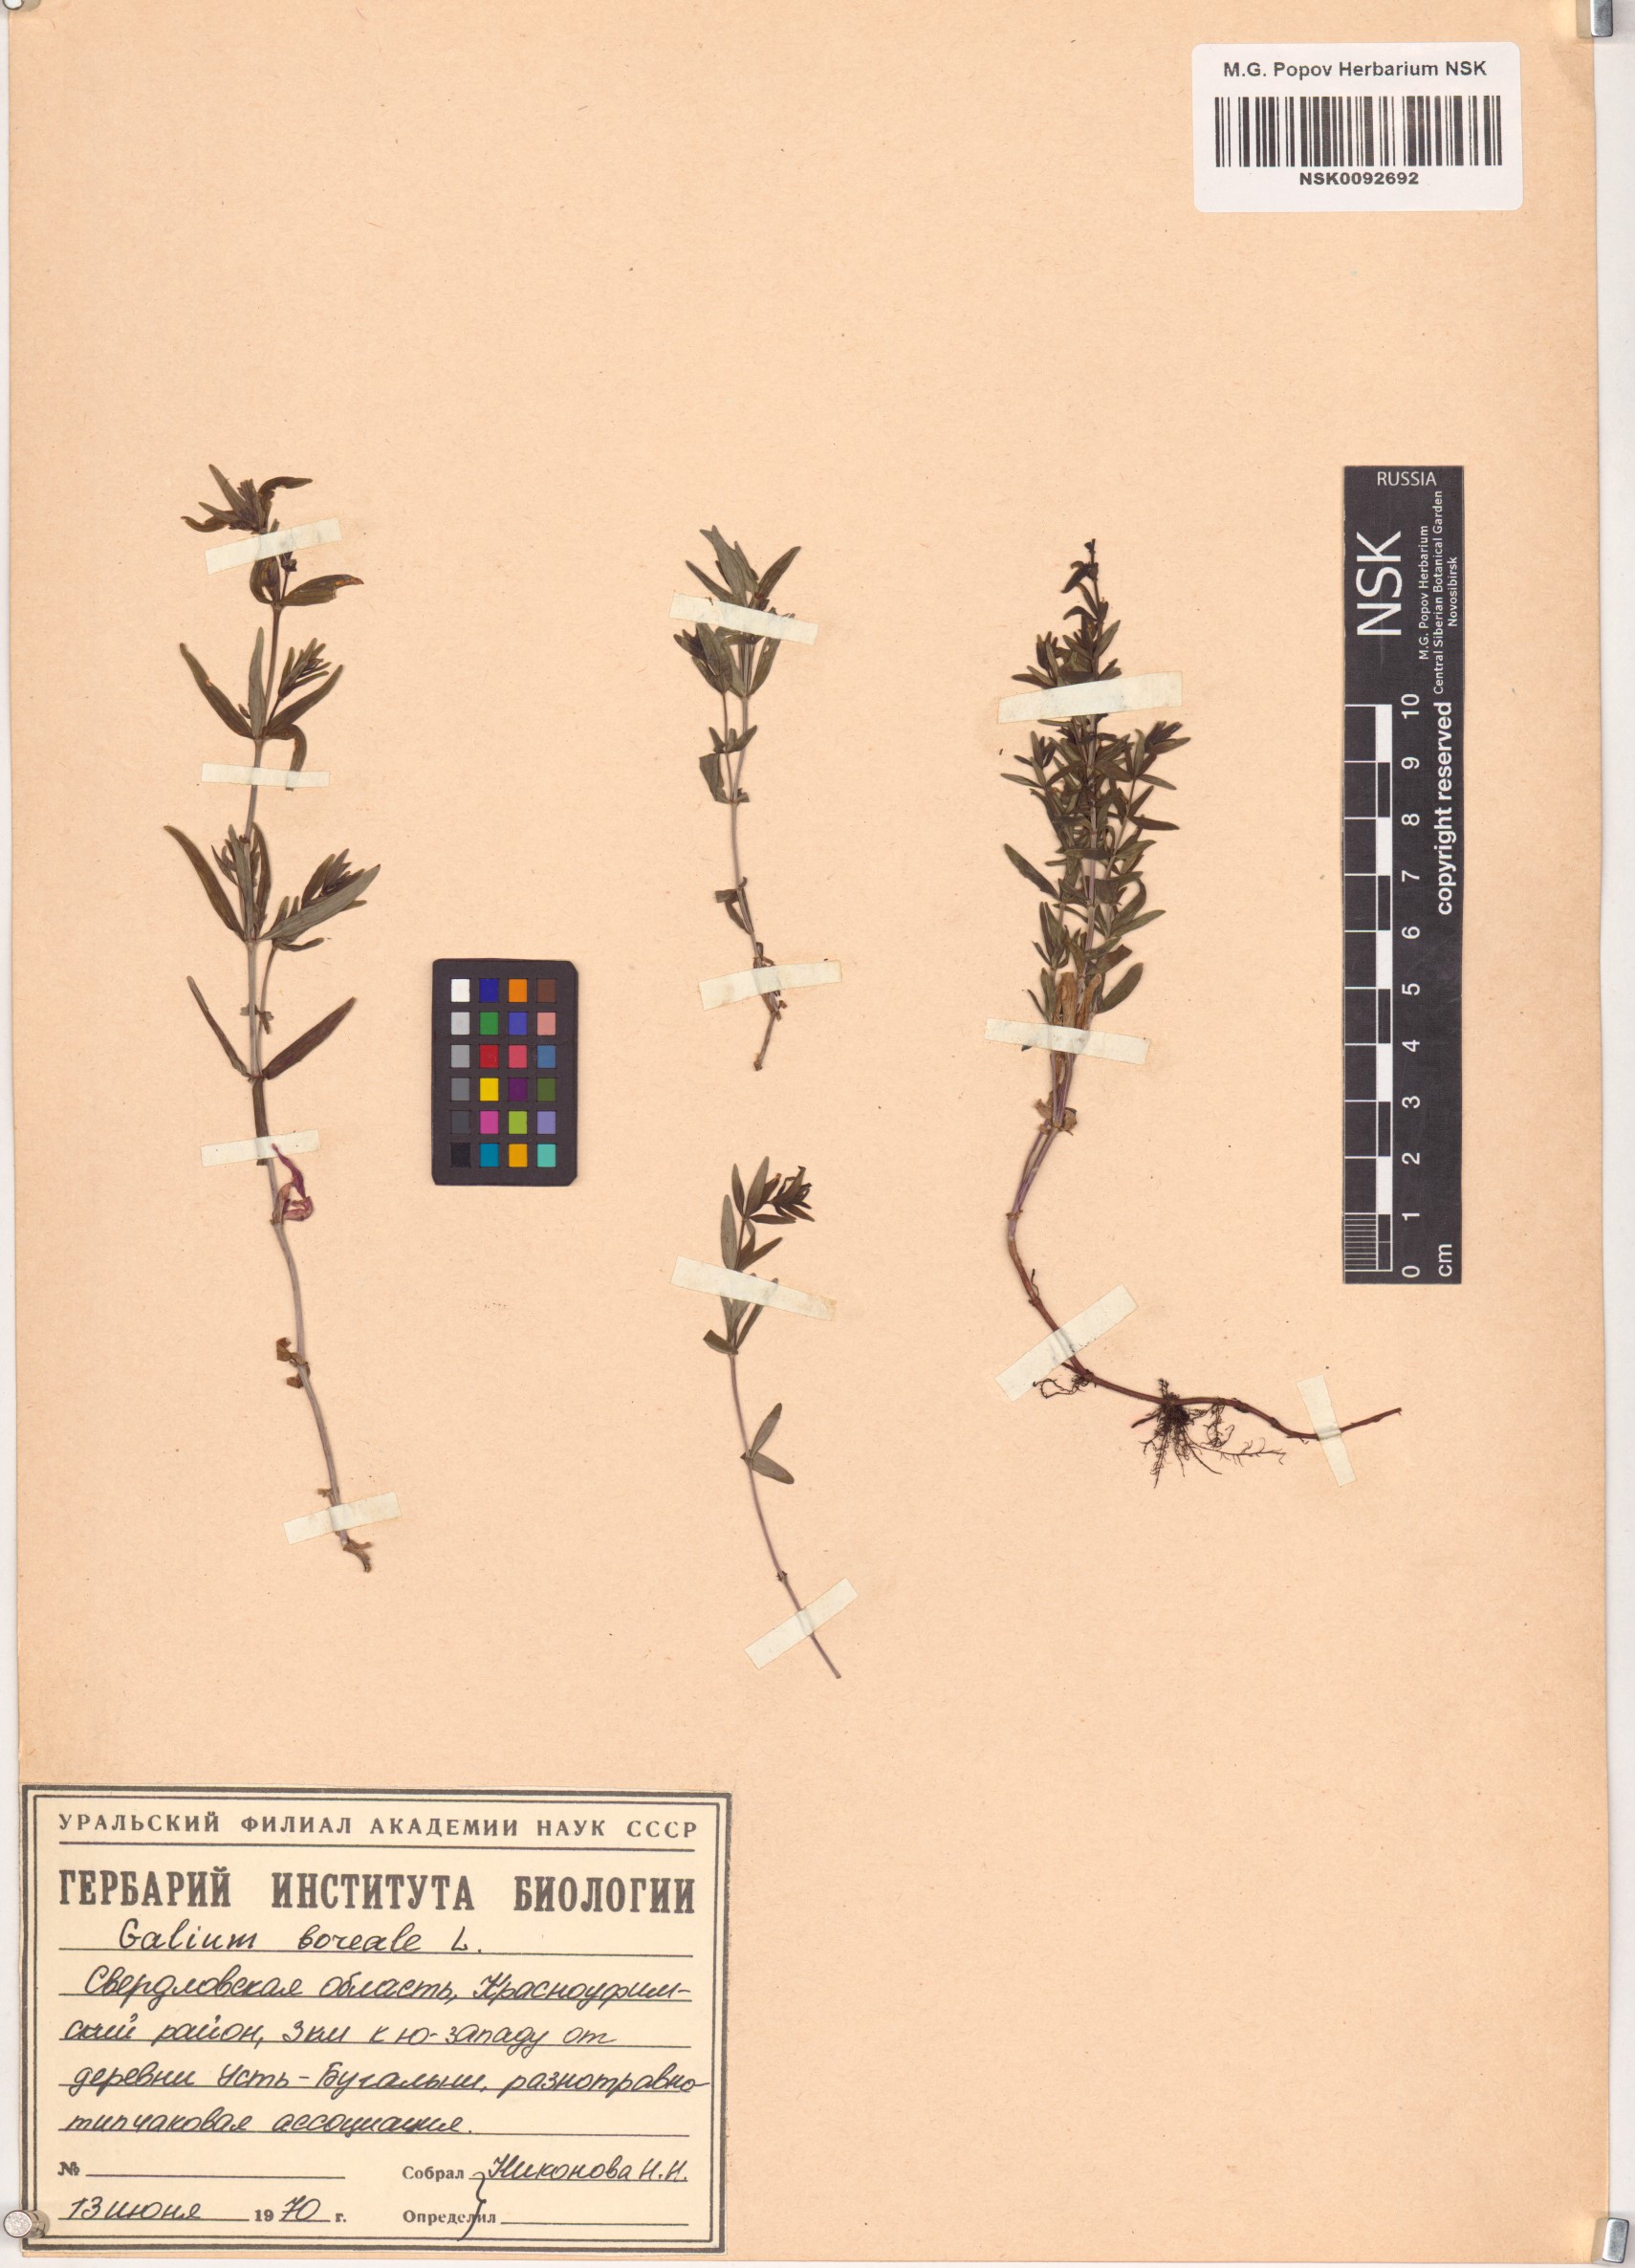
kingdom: Plantae
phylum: Tracheophyta
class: Magnoliopsida
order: Gentianales
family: Rubiaceae
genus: Galium
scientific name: Galium boreale
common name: Northern bedstraw
